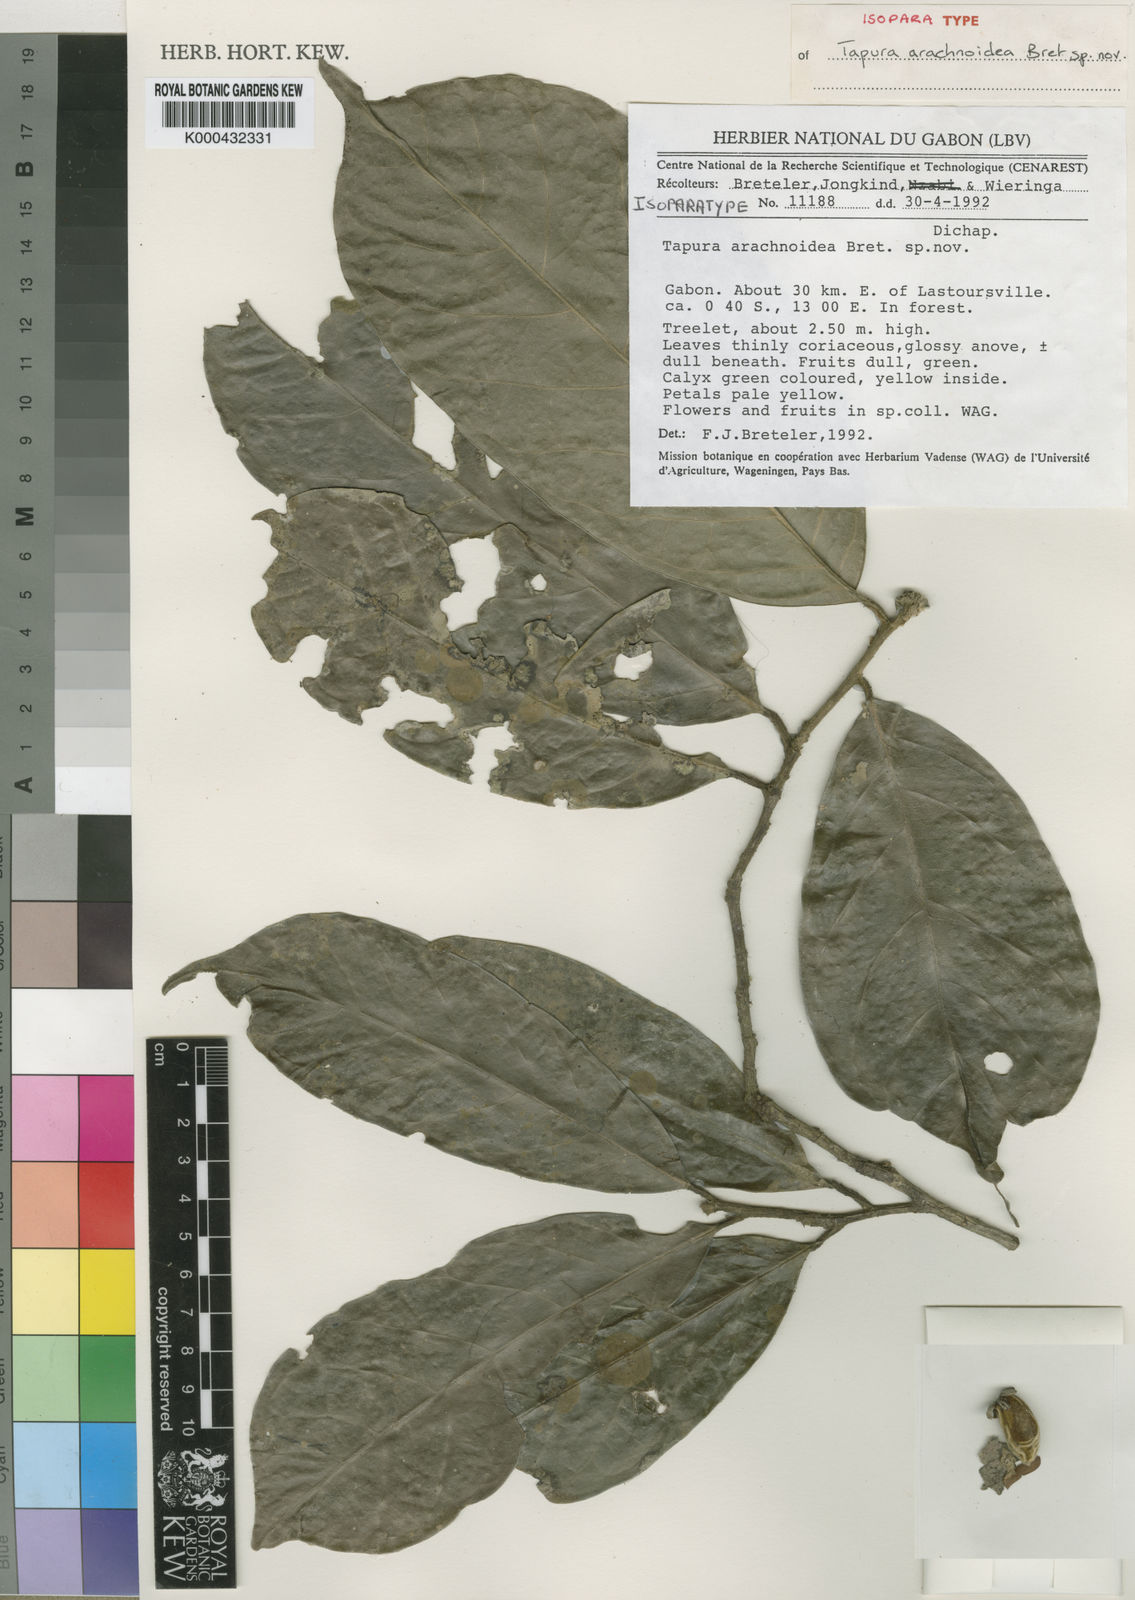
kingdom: Plantae
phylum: Tracheophyta
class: Magnoliopsida
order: Malpighiales
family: Dichapetalaceae
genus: Tapura
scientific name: Tapura arachnoidea
